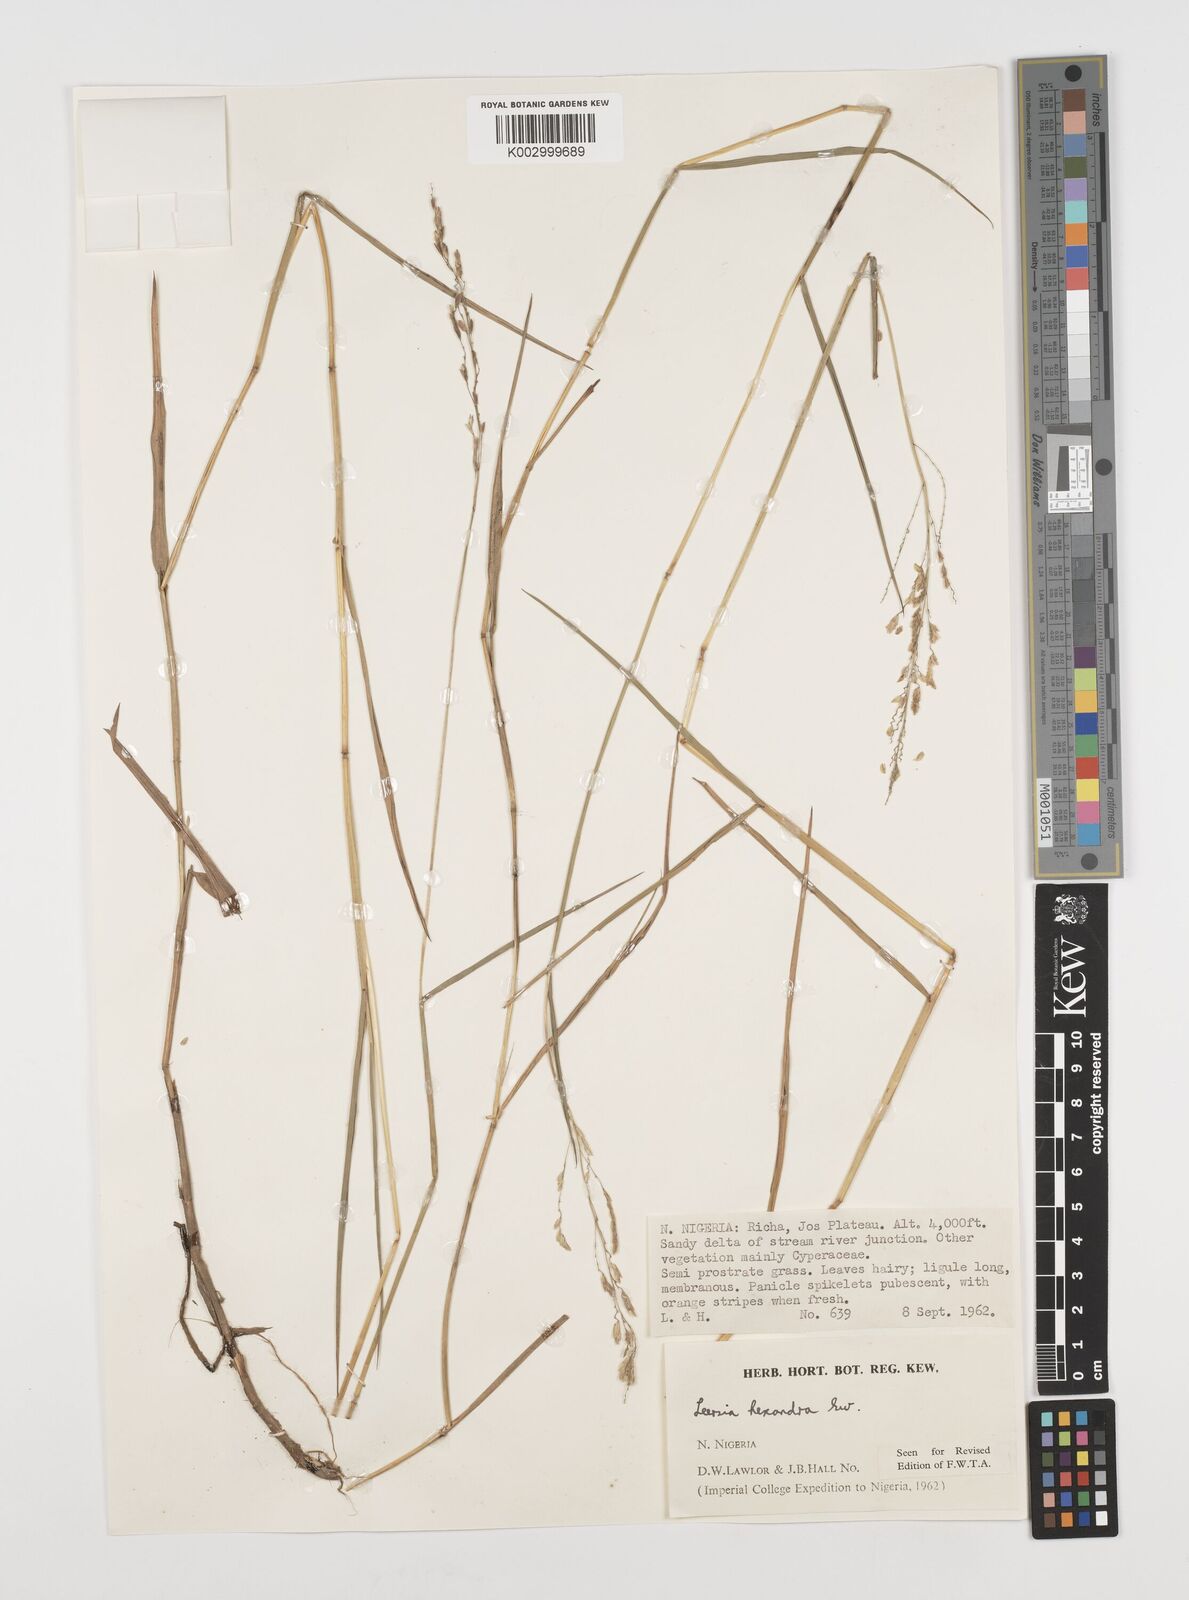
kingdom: Plantae
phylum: Tracheophyta
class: Liliopsida
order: Poales
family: Poaceae
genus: Leersia
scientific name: Leersia hexandra
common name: Southern cut grass
